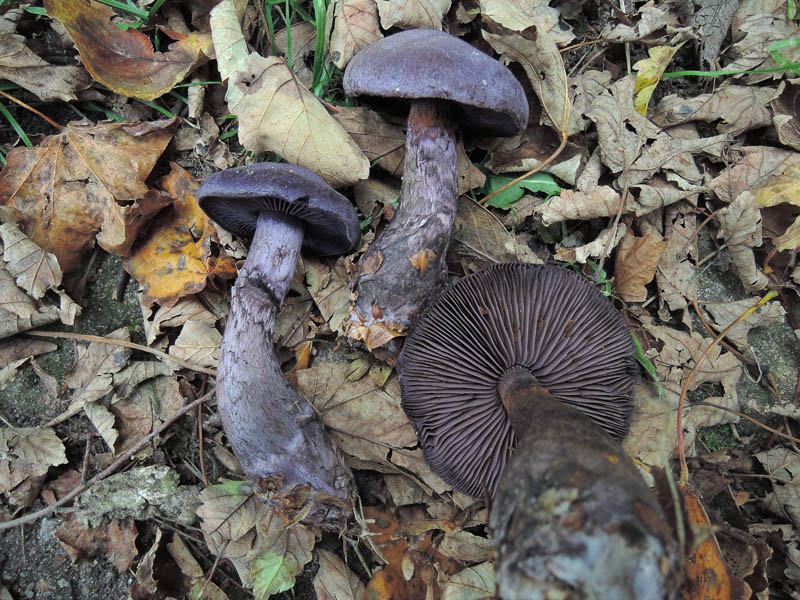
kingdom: Fungi
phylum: Basidiomycota
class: Agaricomycetes
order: Agaricales
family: Cortinariaceae
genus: Cortinarius
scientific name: Cortinarius violaceus
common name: mørkviolet slørhat
